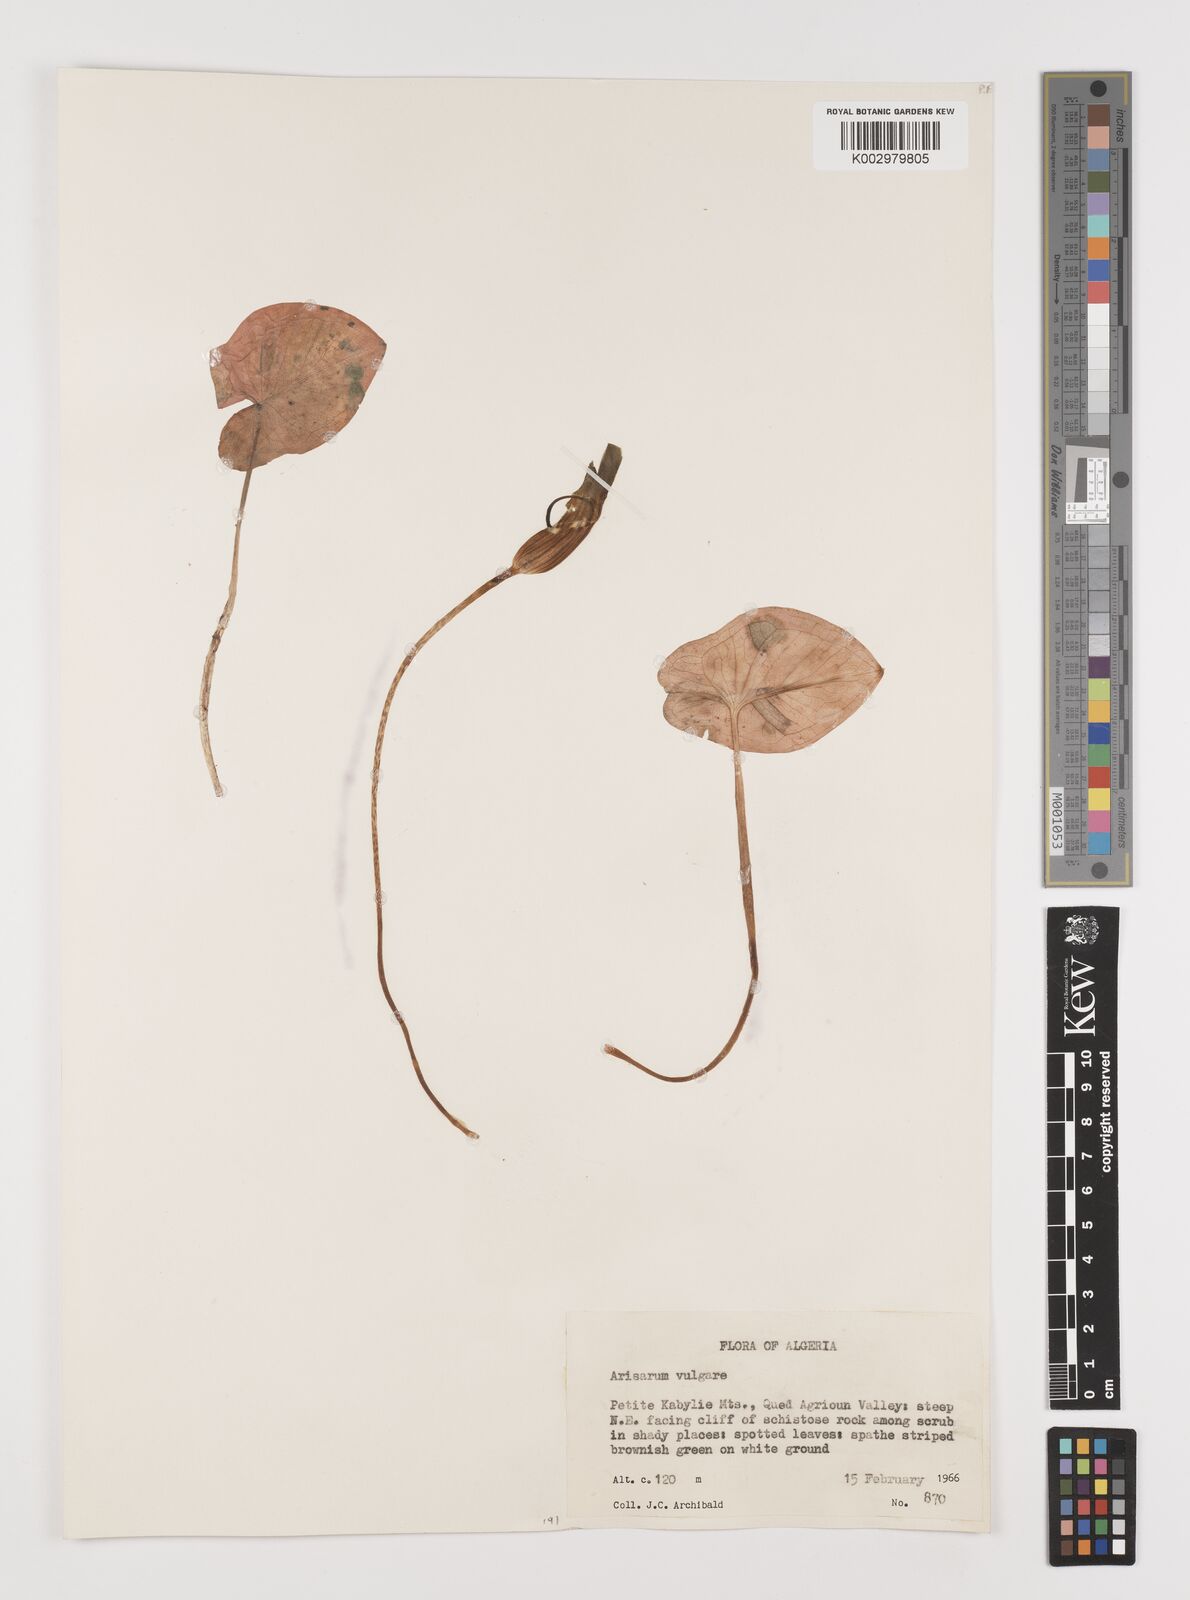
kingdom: Plantae
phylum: Tracheophyta
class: Liliopsida
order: Alismatales
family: Araceae
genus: Arisarum
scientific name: Arisarum vulgare
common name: Common arisarum
